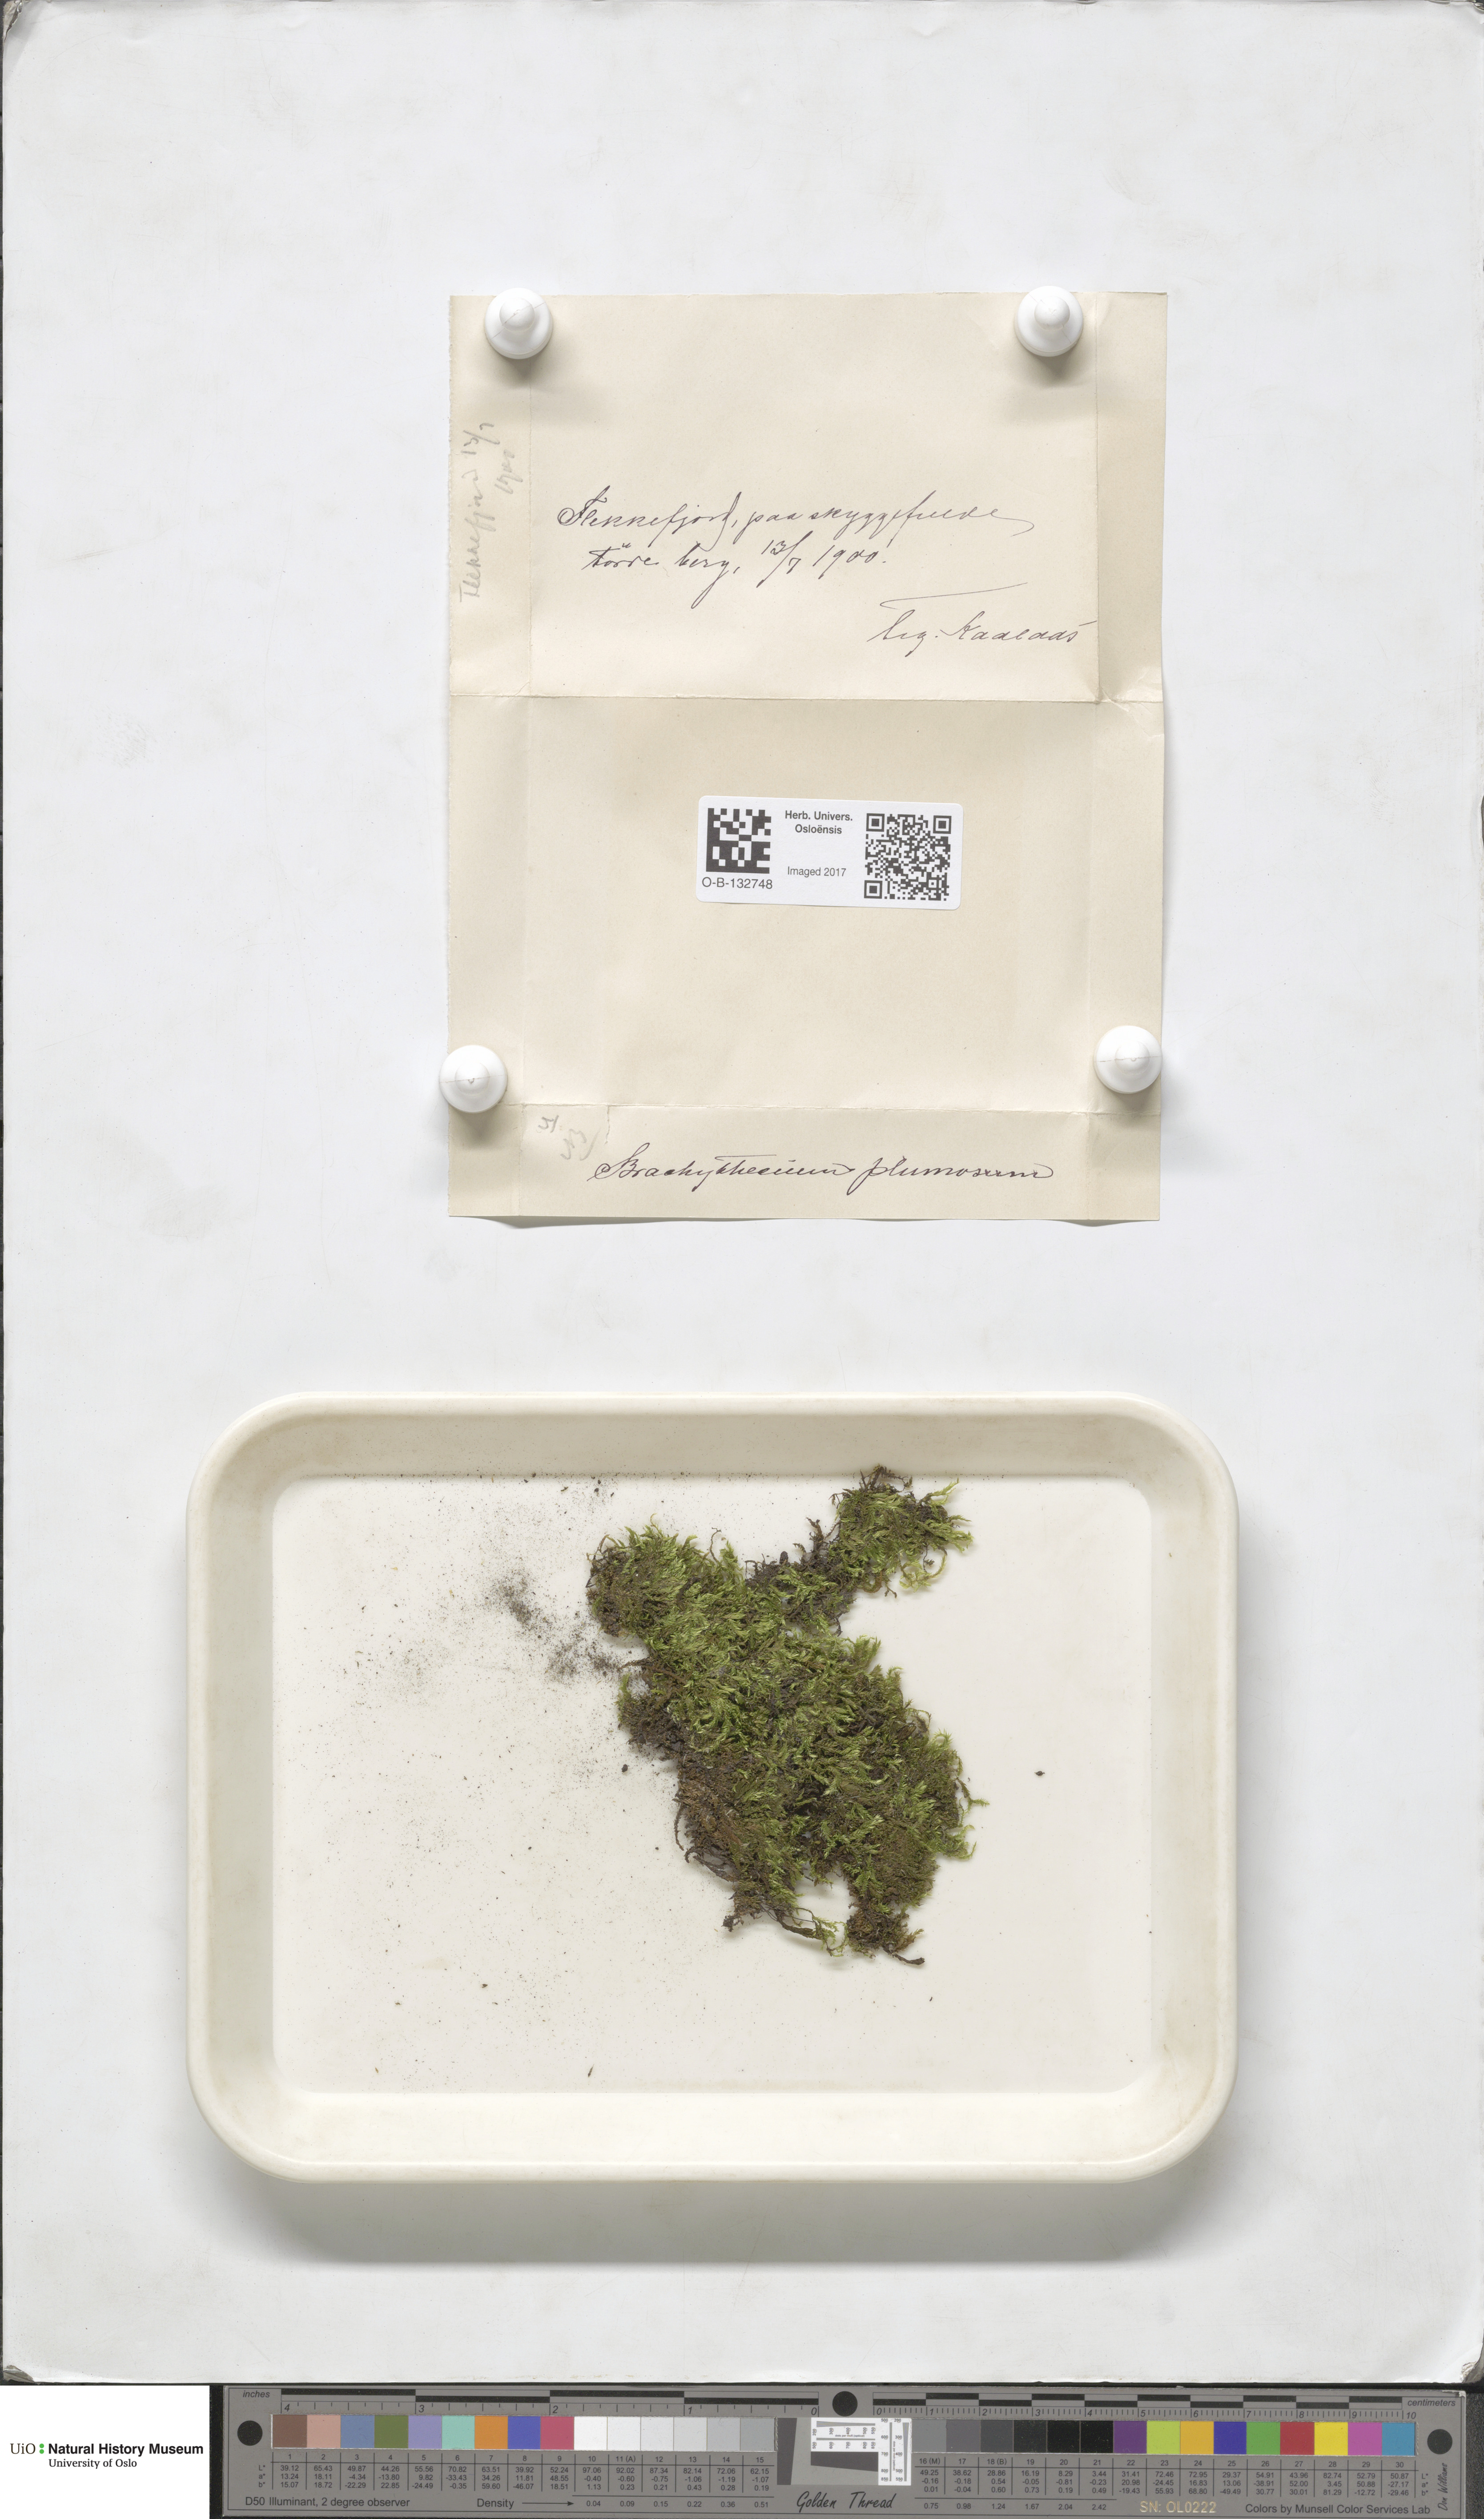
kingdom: Plantae
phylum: Bryophyta
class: Bryopsida
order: Hypnales
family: Brachytheciaceae
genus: Sciuro-hypnum
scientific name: Sciuro-hypnum plumosum
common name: Rusty feather-moss
